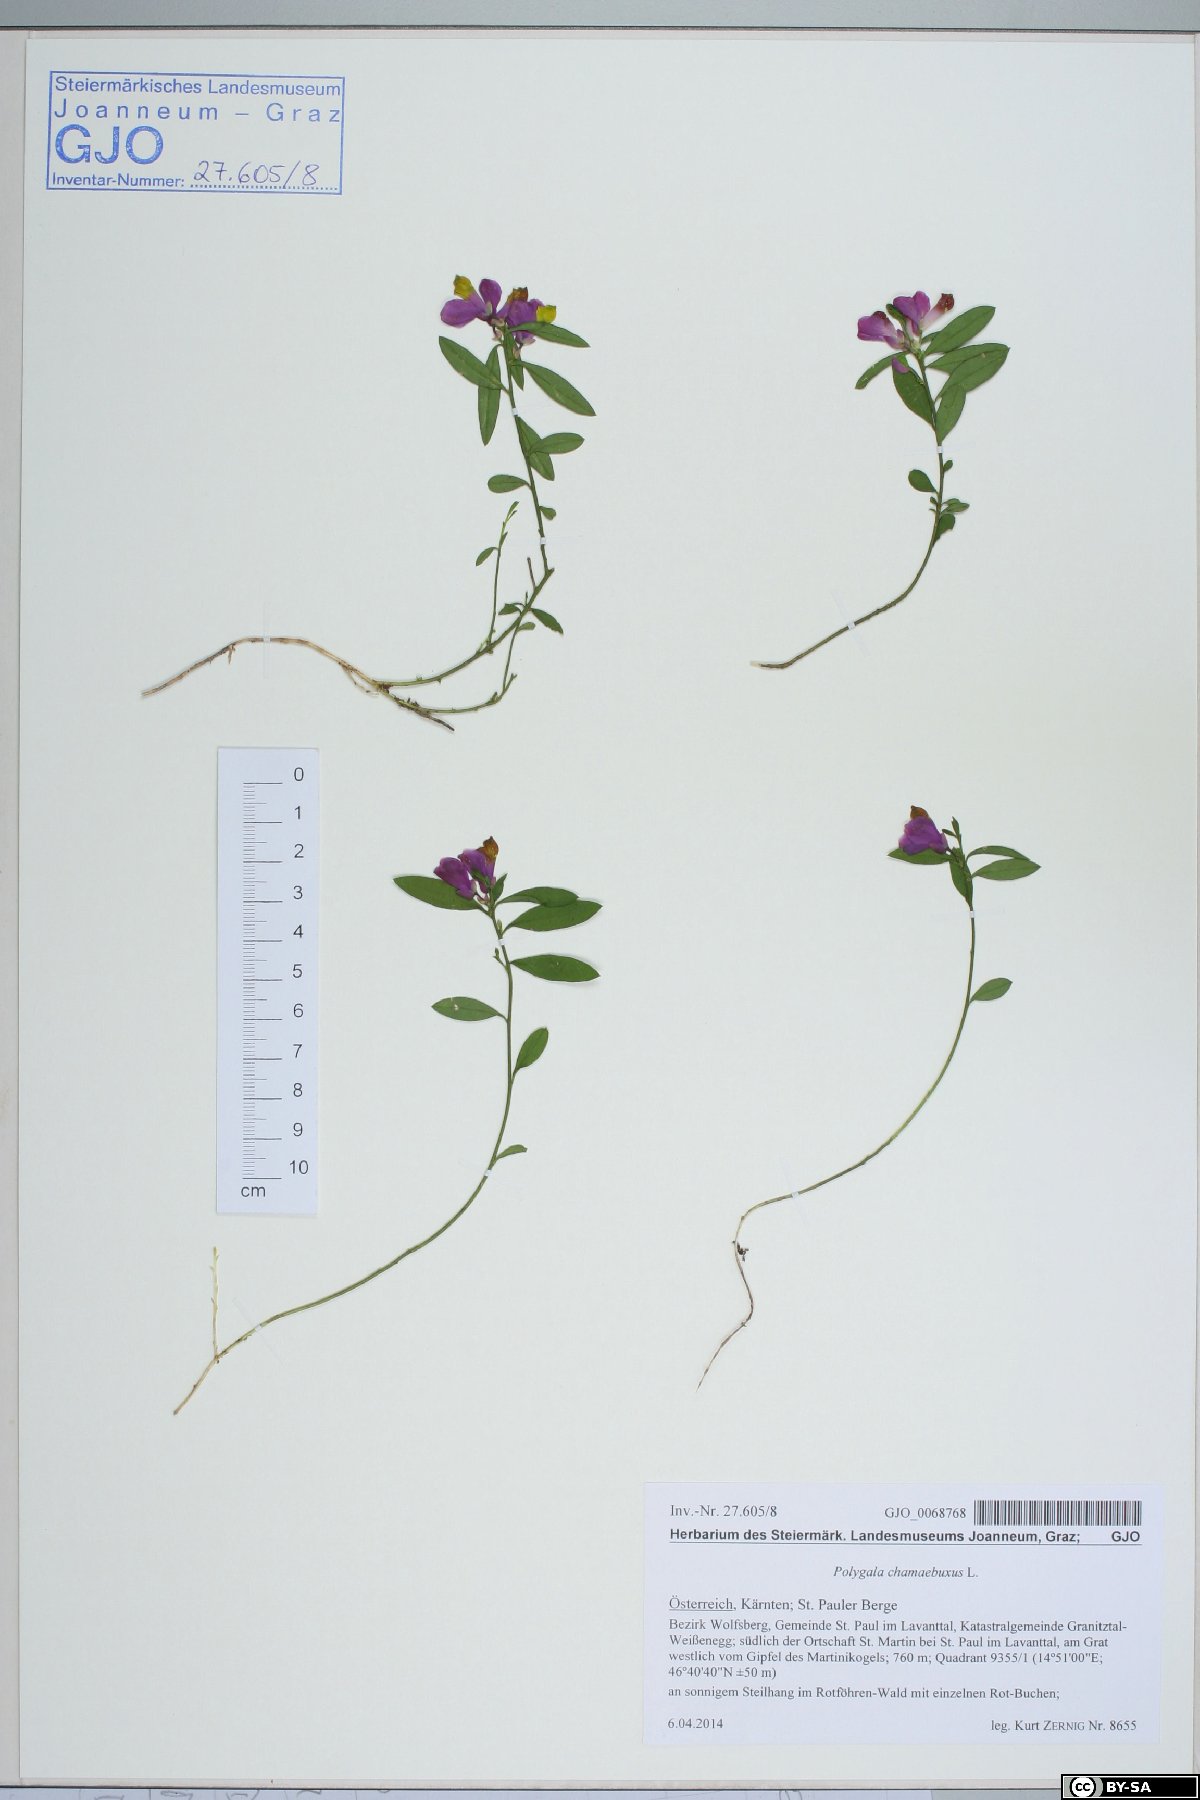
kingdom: Plantae
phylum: Tracheophyta
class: Magnoliopsida
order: Fabales
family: Polygalaceae
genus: Polygaloides
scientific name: Polygaloides chamaebuxus
